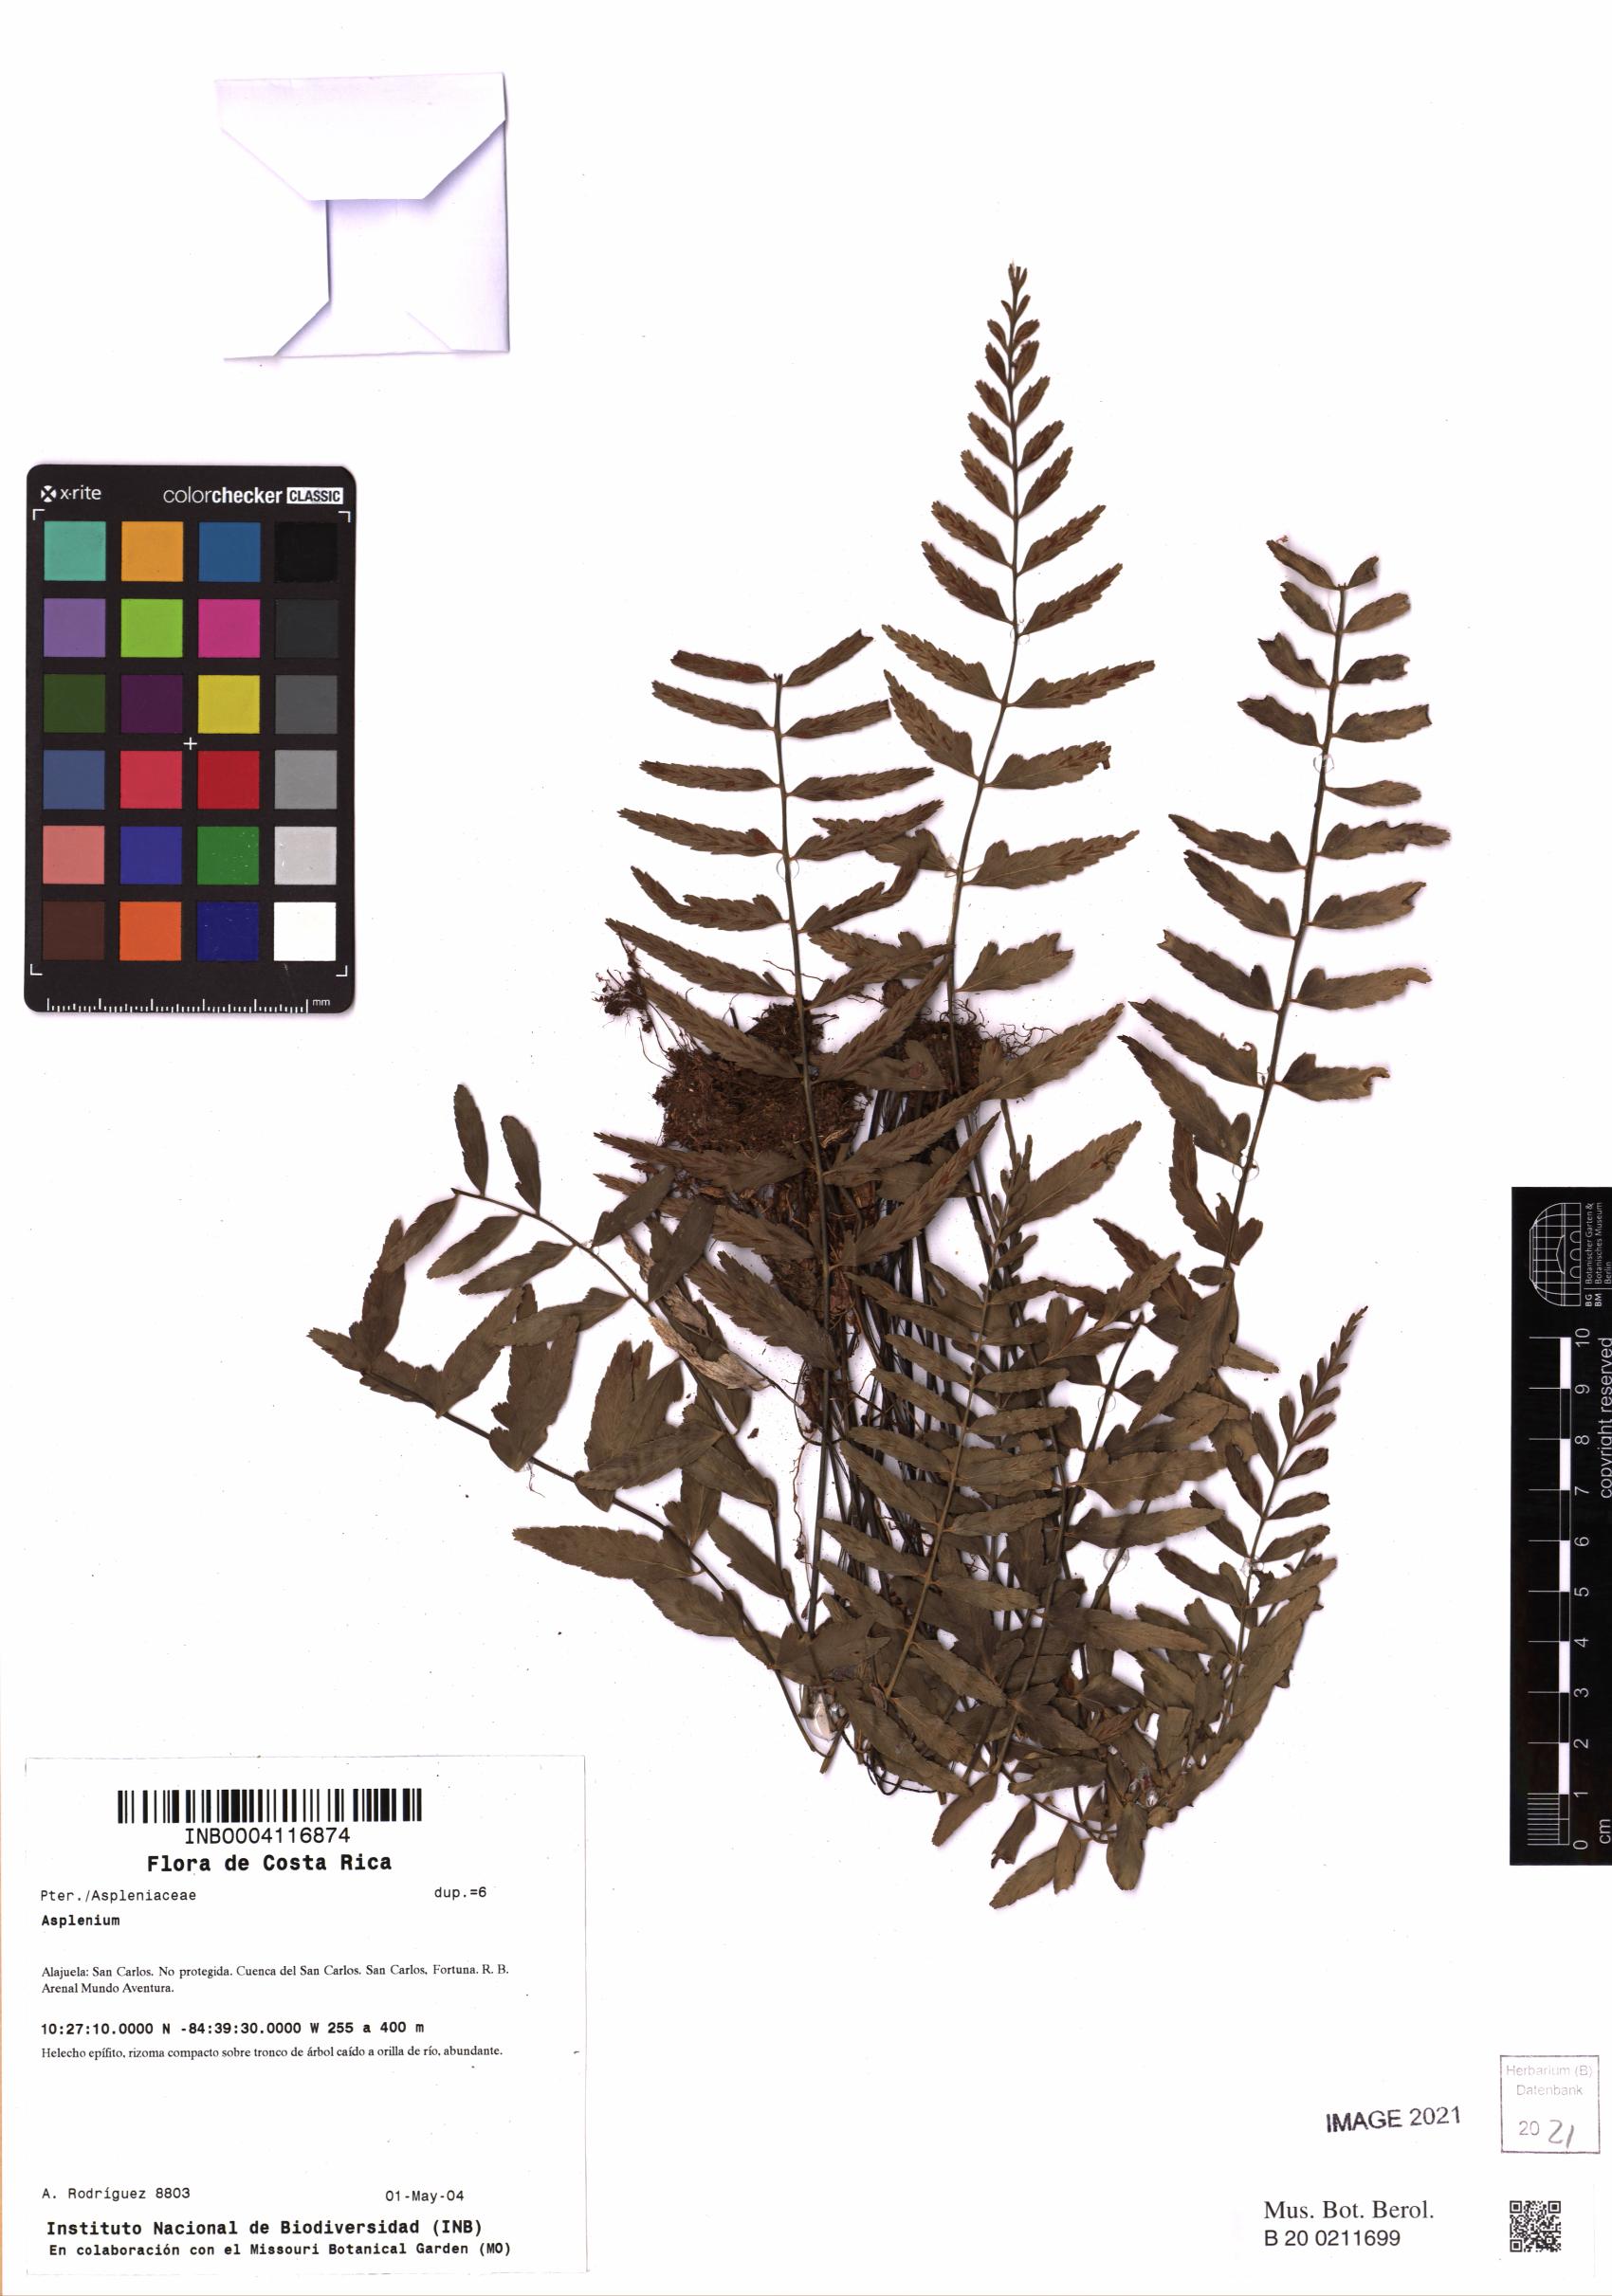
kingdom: Plantae
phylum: Tracheophyta
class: Polypodiopsida
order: Polypodiales
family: Aspleniaceae
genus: Asplenium
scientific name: Asplenium
